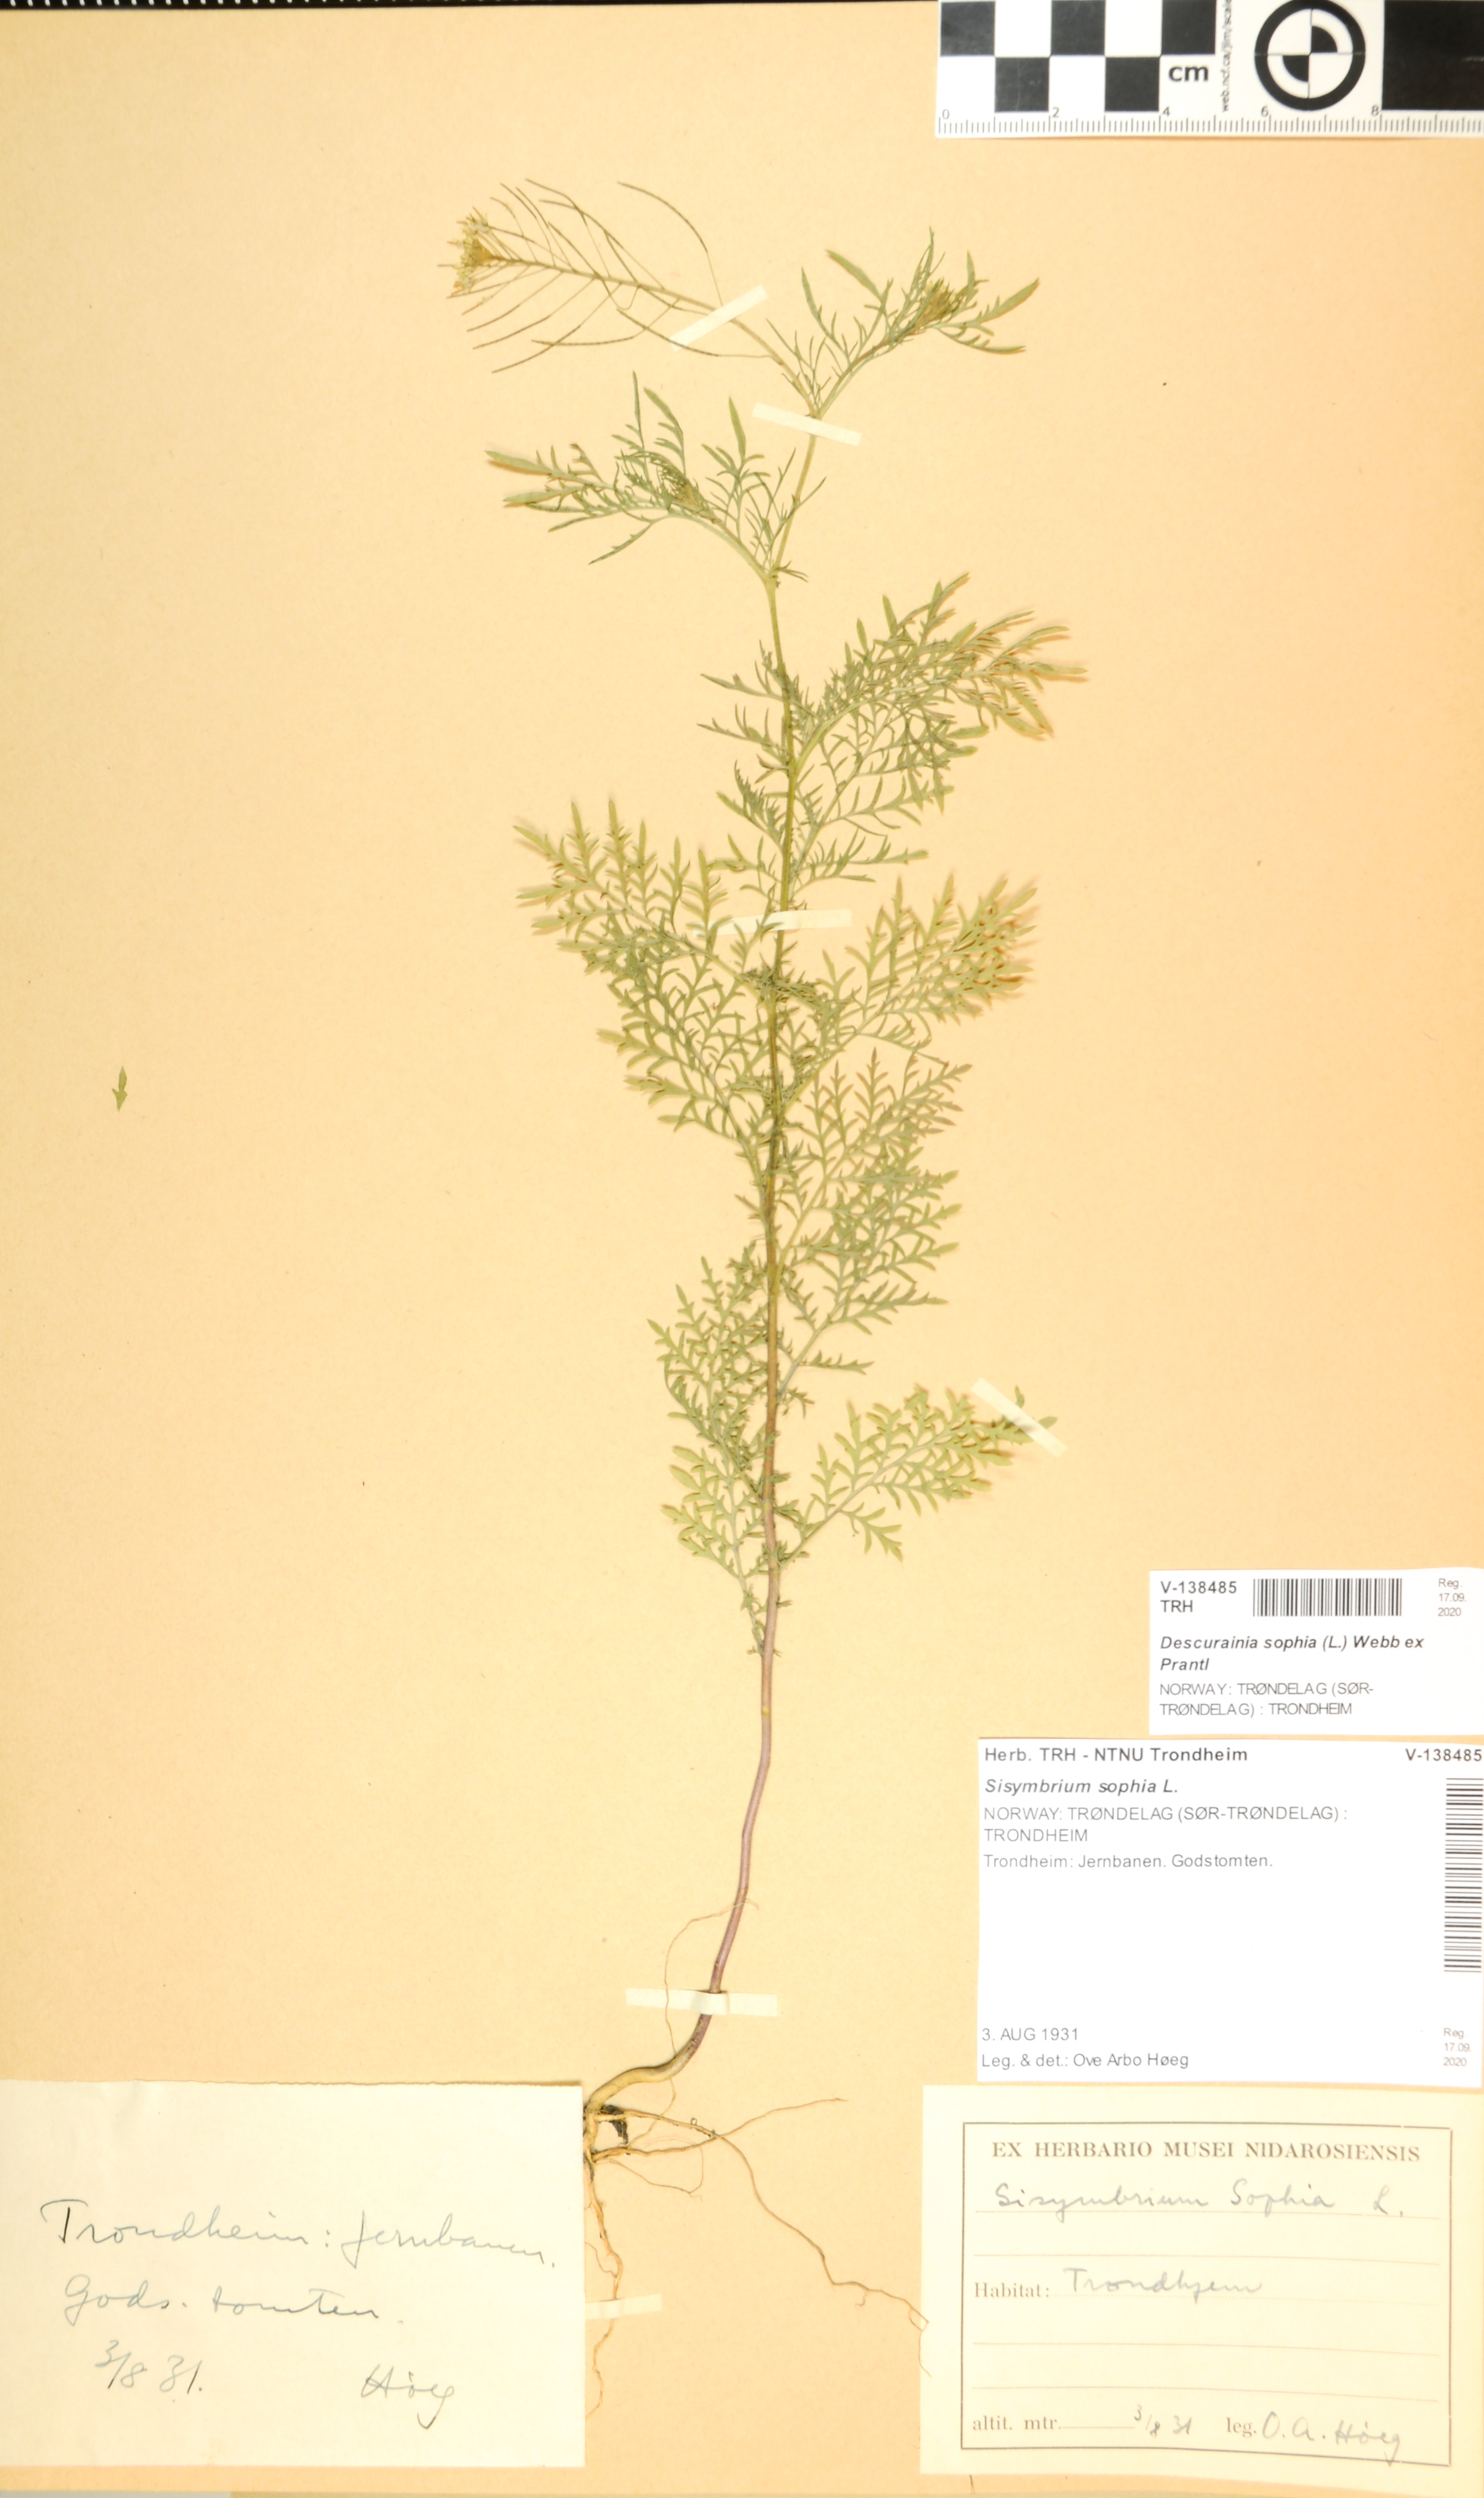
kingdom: Plantae
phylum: Tracheophyta
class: Magnoliopsida
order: Brassicales
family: Brassicaceae
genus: Descurainia
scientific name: Descurainia sophia
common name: Flixweed
